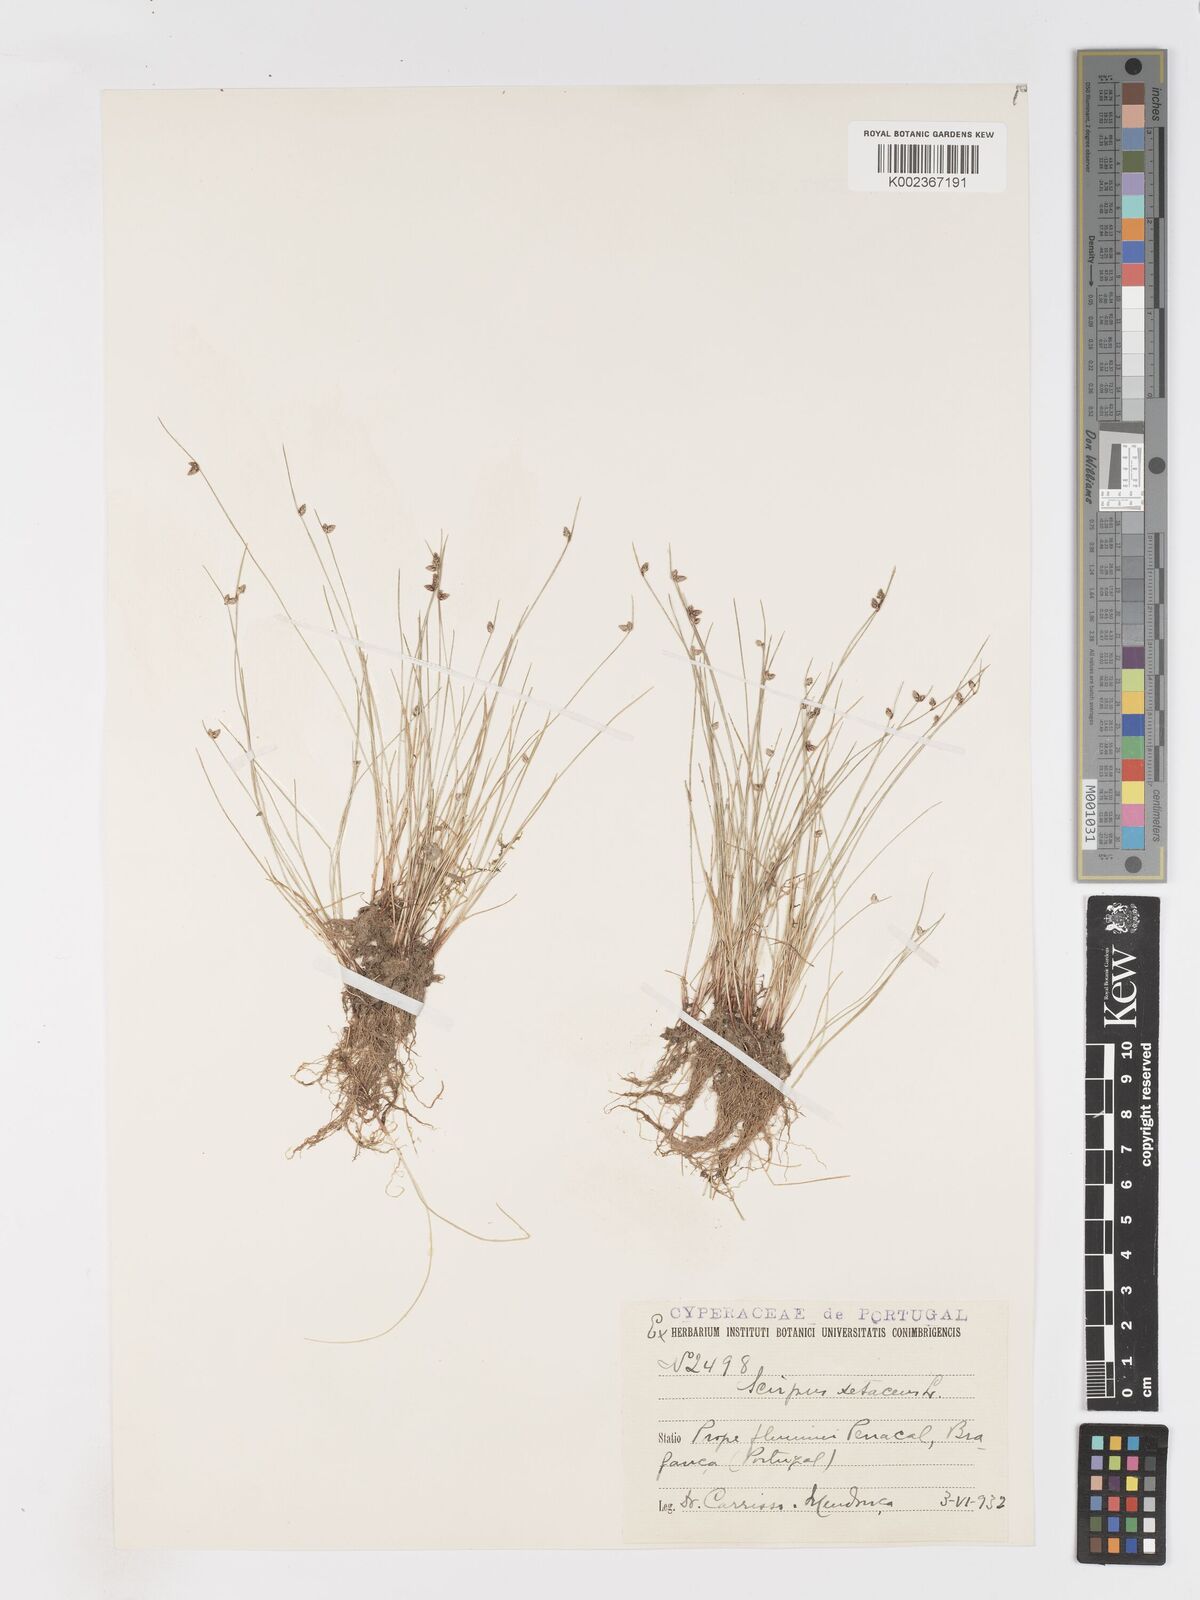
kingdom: Plantae
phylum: Tracheophyta
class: Liliopsida
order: Poales
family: Cyperaceae
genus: Isolepis
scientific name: Isolepis setacea
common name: Bristle club-rush
